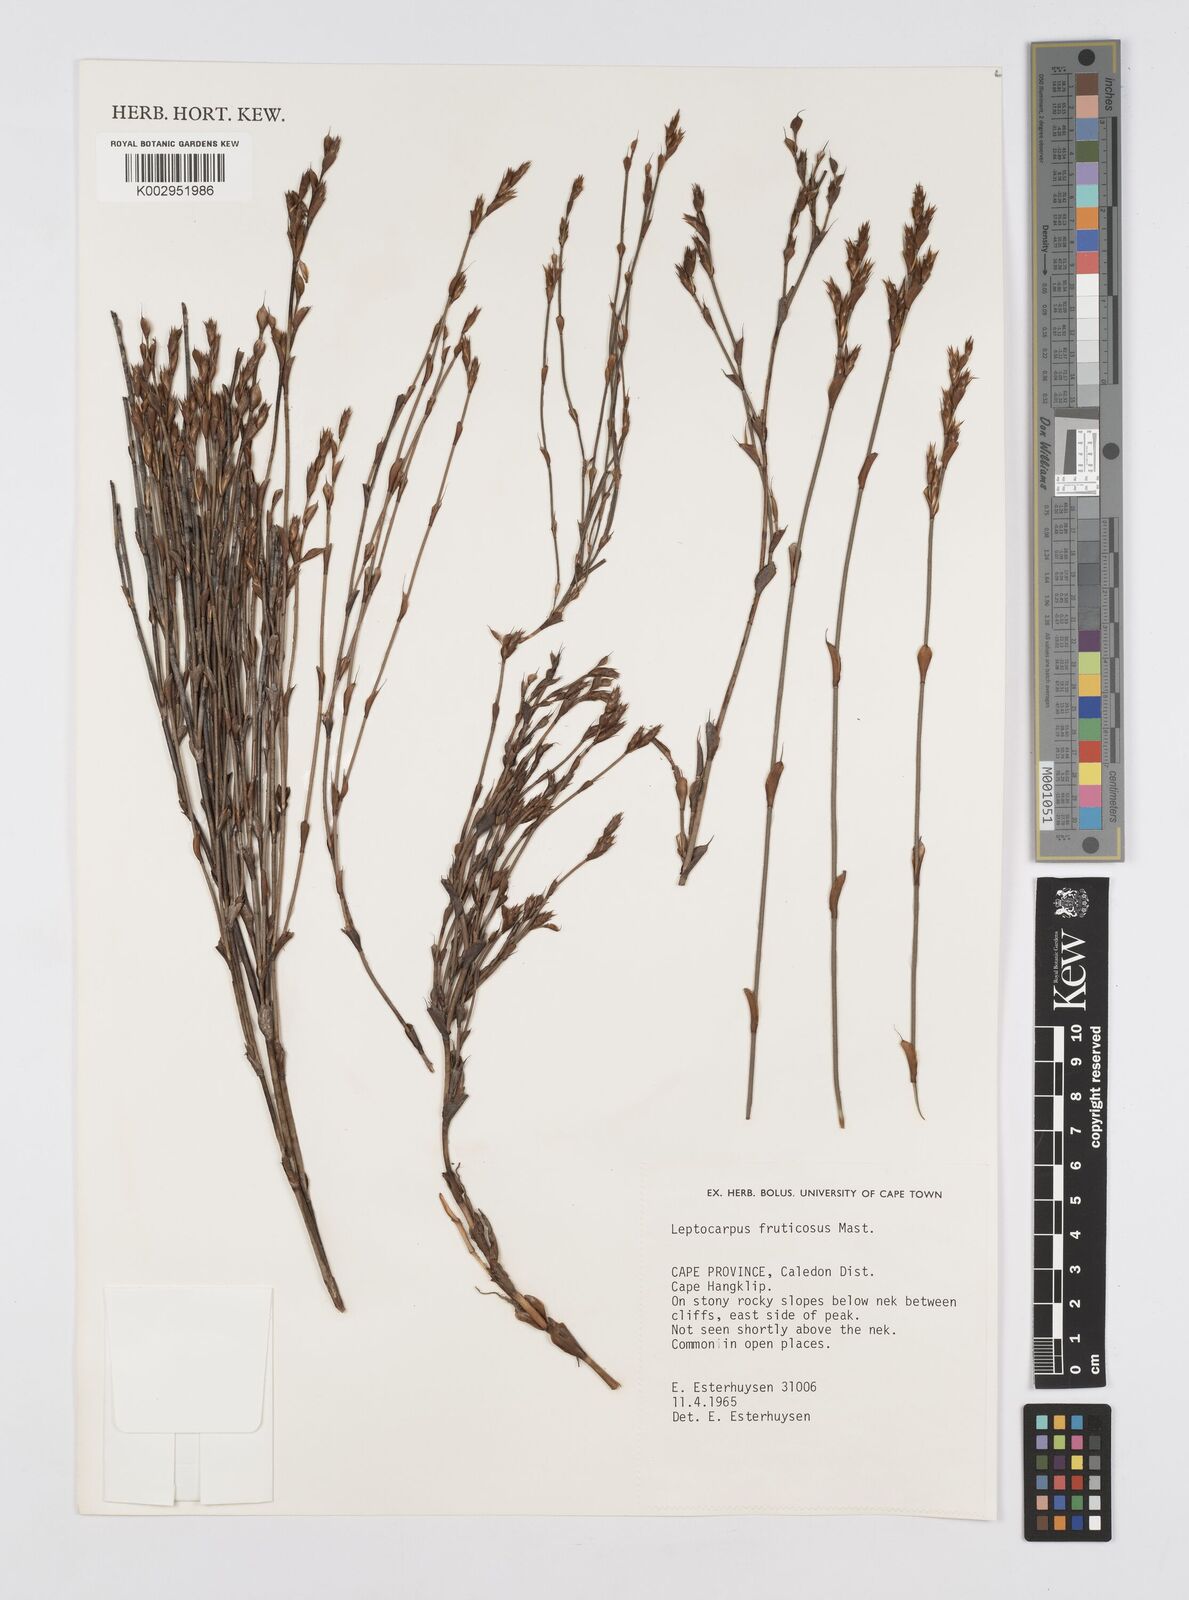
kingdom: Plantae
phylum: Tracheophyta
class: Liliopsida
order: Poales
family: Restionaceae
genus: Rhodocoma
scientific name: Rhodocoma fruticosa
